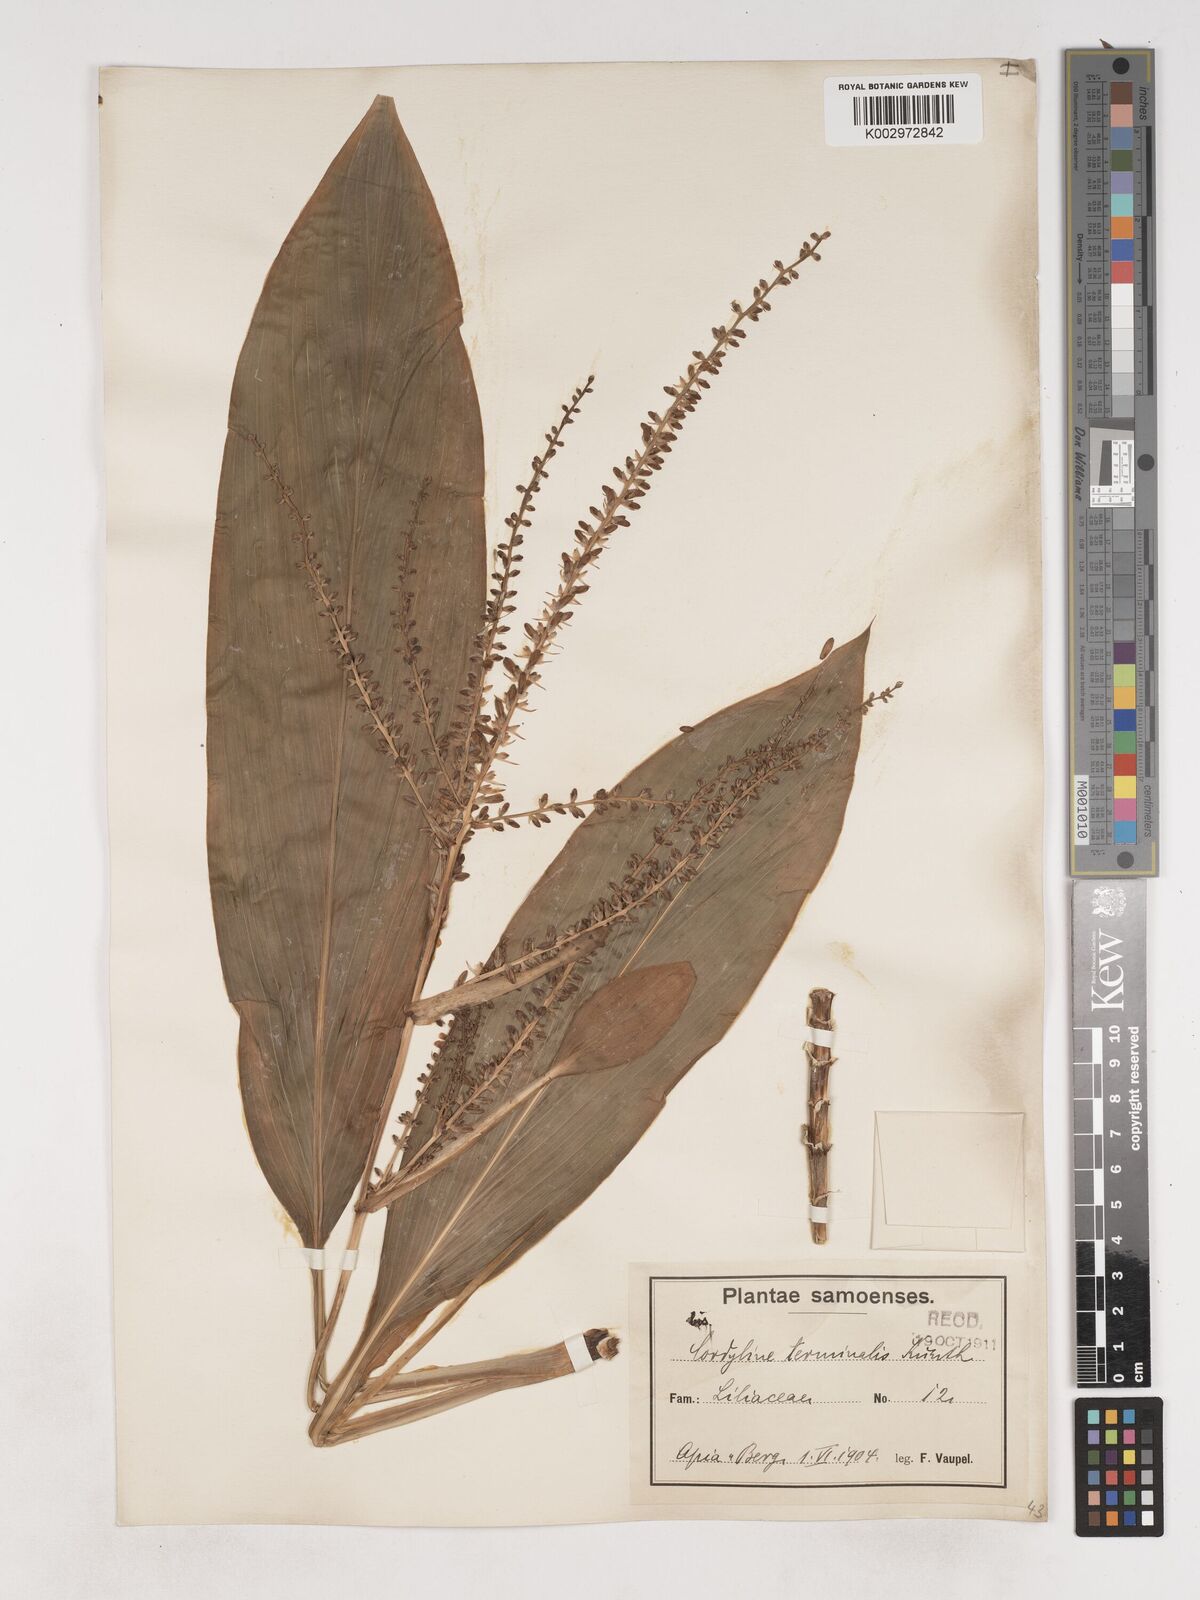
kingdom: Plantae
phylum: Tracheophyta
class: Liliopsida
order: Asparagales
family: Asparagaceae
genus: Cordyline
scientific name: Cordyline fruticosa
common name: Good-luck-plant
